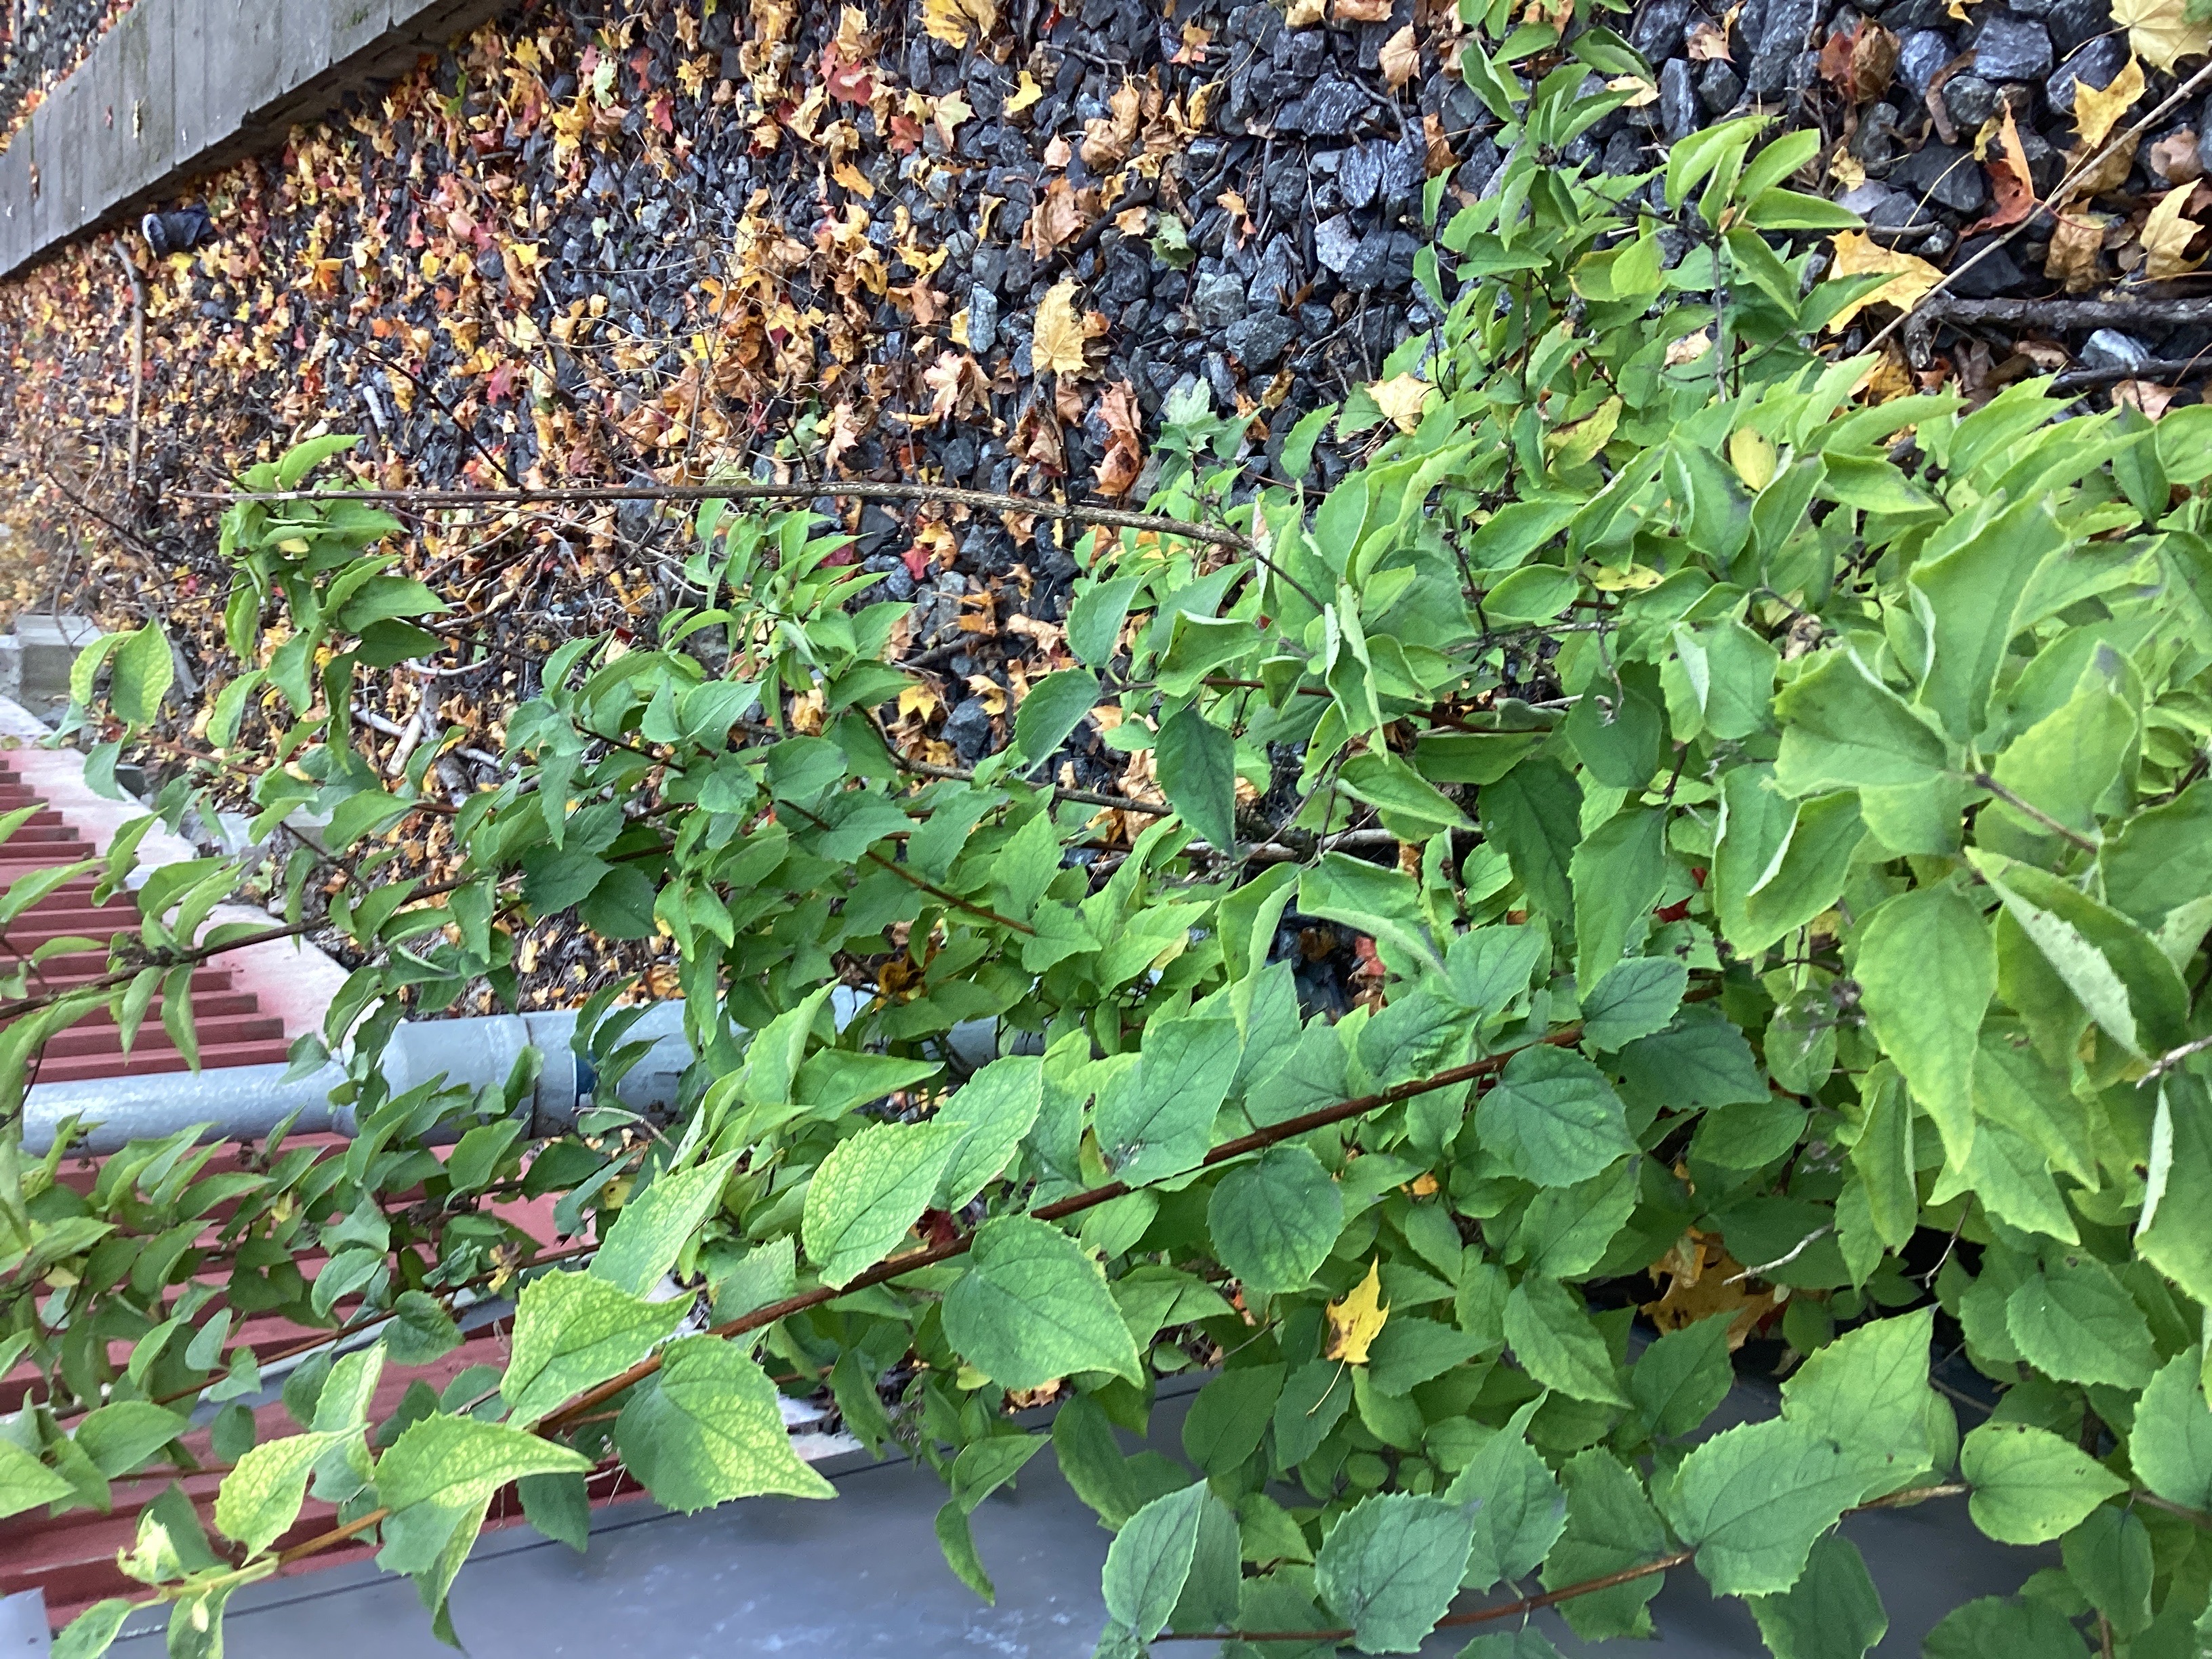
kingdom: Plantae
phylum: Tracheophyta
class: Magnoliopsida
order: Cornales
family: Hydrangeaceae
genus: Philadelphus
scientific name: Philadelphus coronarius
